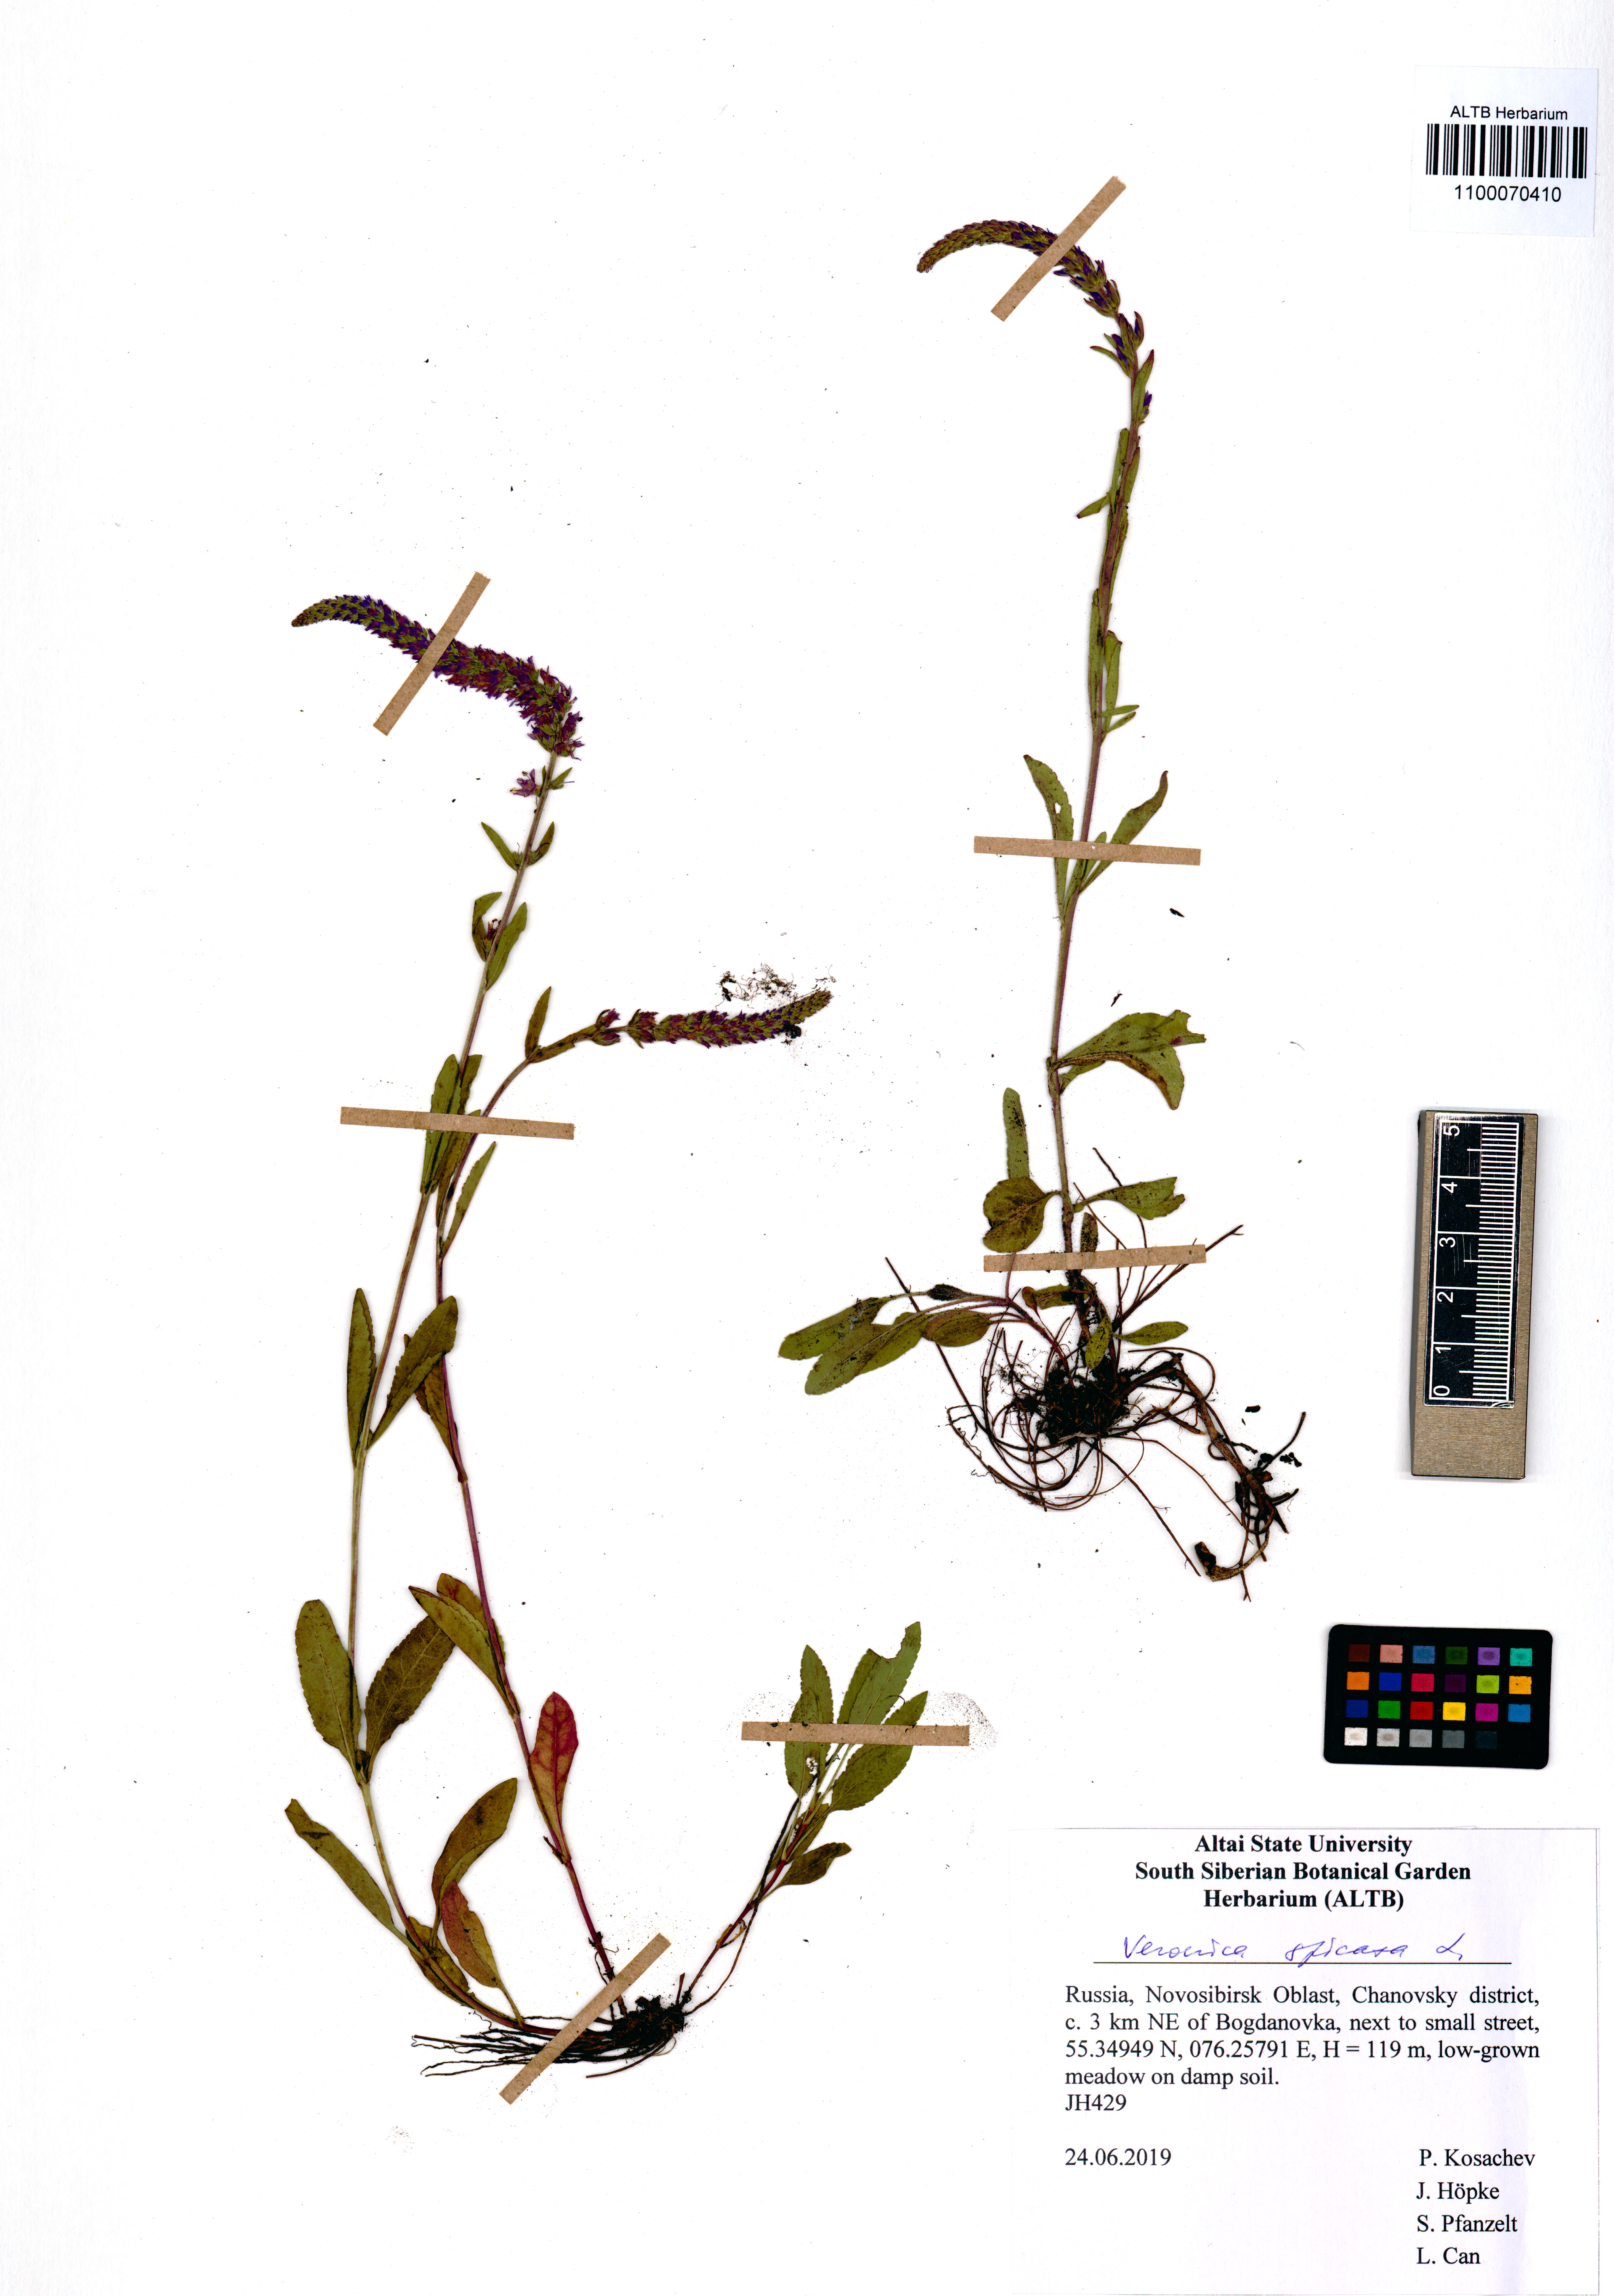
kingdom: Plantae
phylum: Tracheophyta
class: Magnoliopsida
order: Lamiales
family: Plantaginaceae
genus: Veronica
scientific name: Veronica spicata
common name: Spiked speedwell
